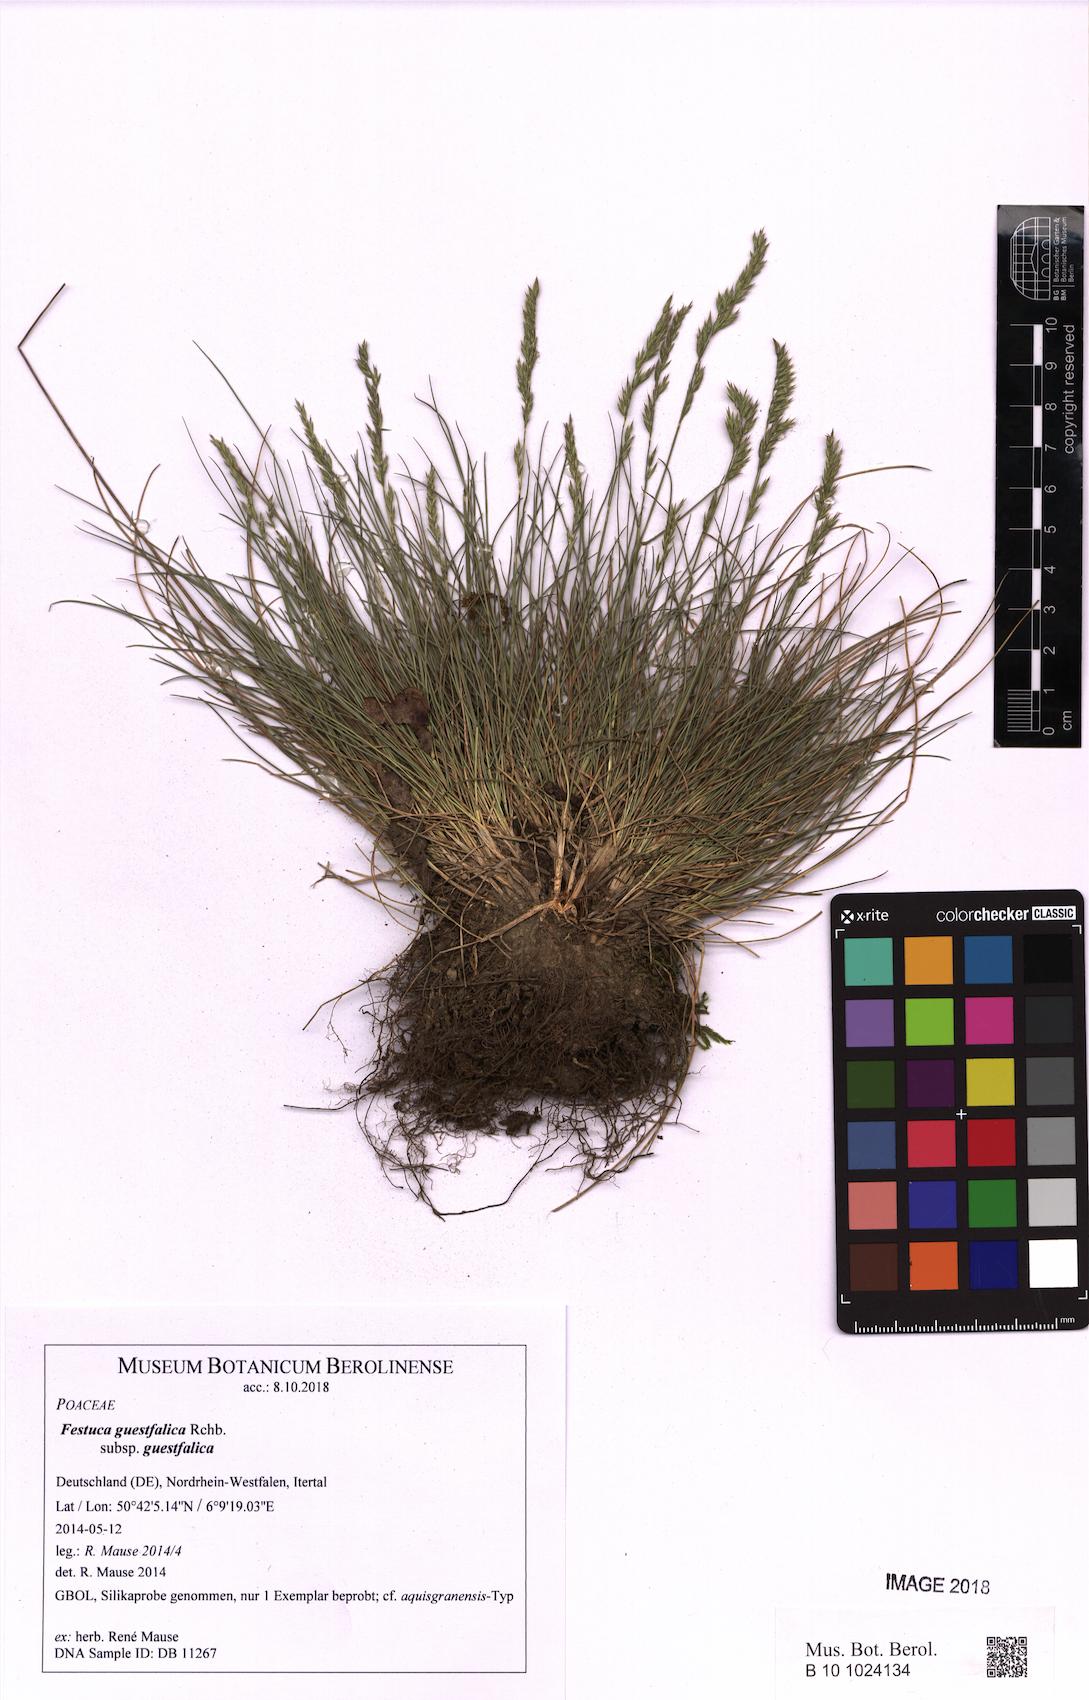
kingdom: Plantae
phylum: Tracheophyta
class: Liliopsida
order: Poales
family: Poaceae
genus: Festuca
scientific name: Festuca guestfalica
